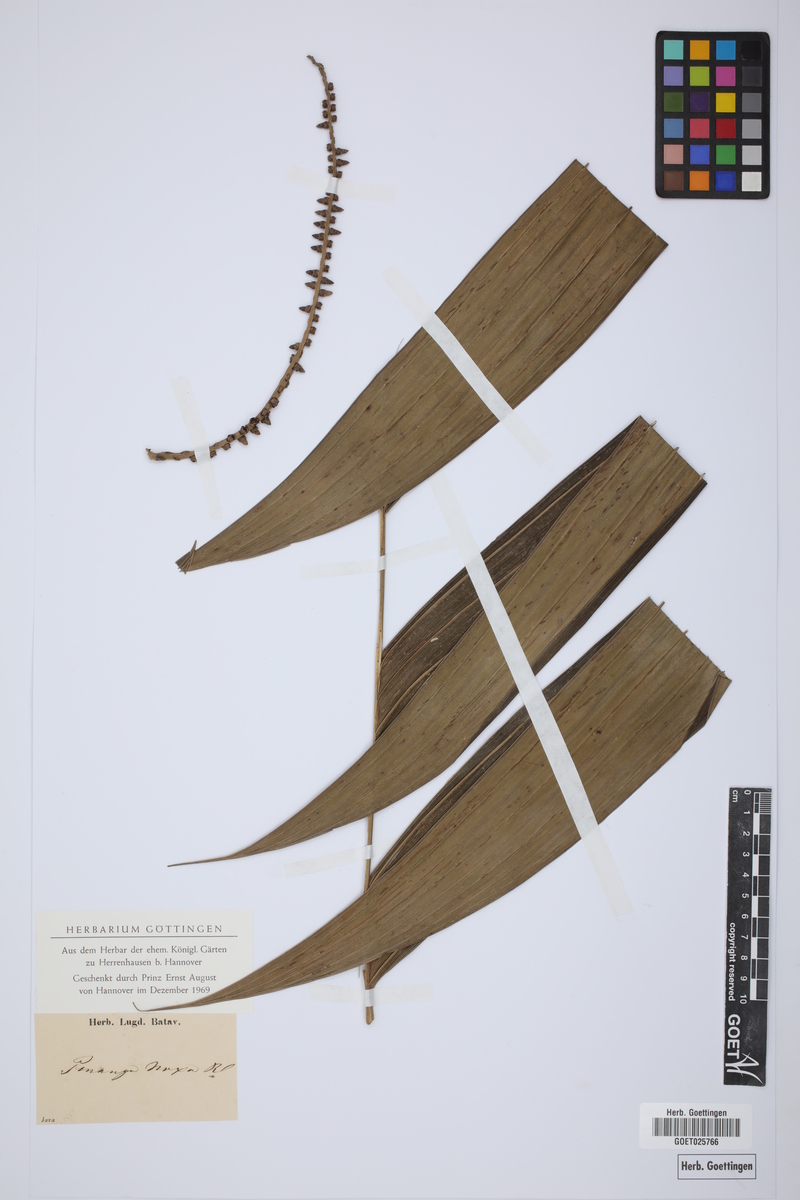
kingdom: Plantae
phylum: Tracheophyta
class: Liliopsida
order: Arecales
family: Arecaceae
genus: Pinanga
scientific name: Pinanga coronata
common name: Ivory cane palm
